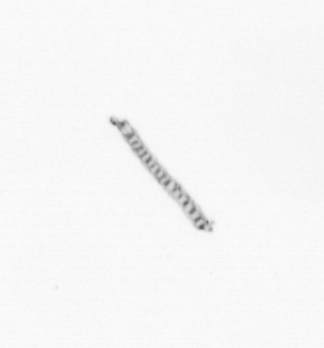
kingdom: Chromista
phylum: Ochrophyta
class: Bacillariophyceae
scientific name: Bacillariophyceae
